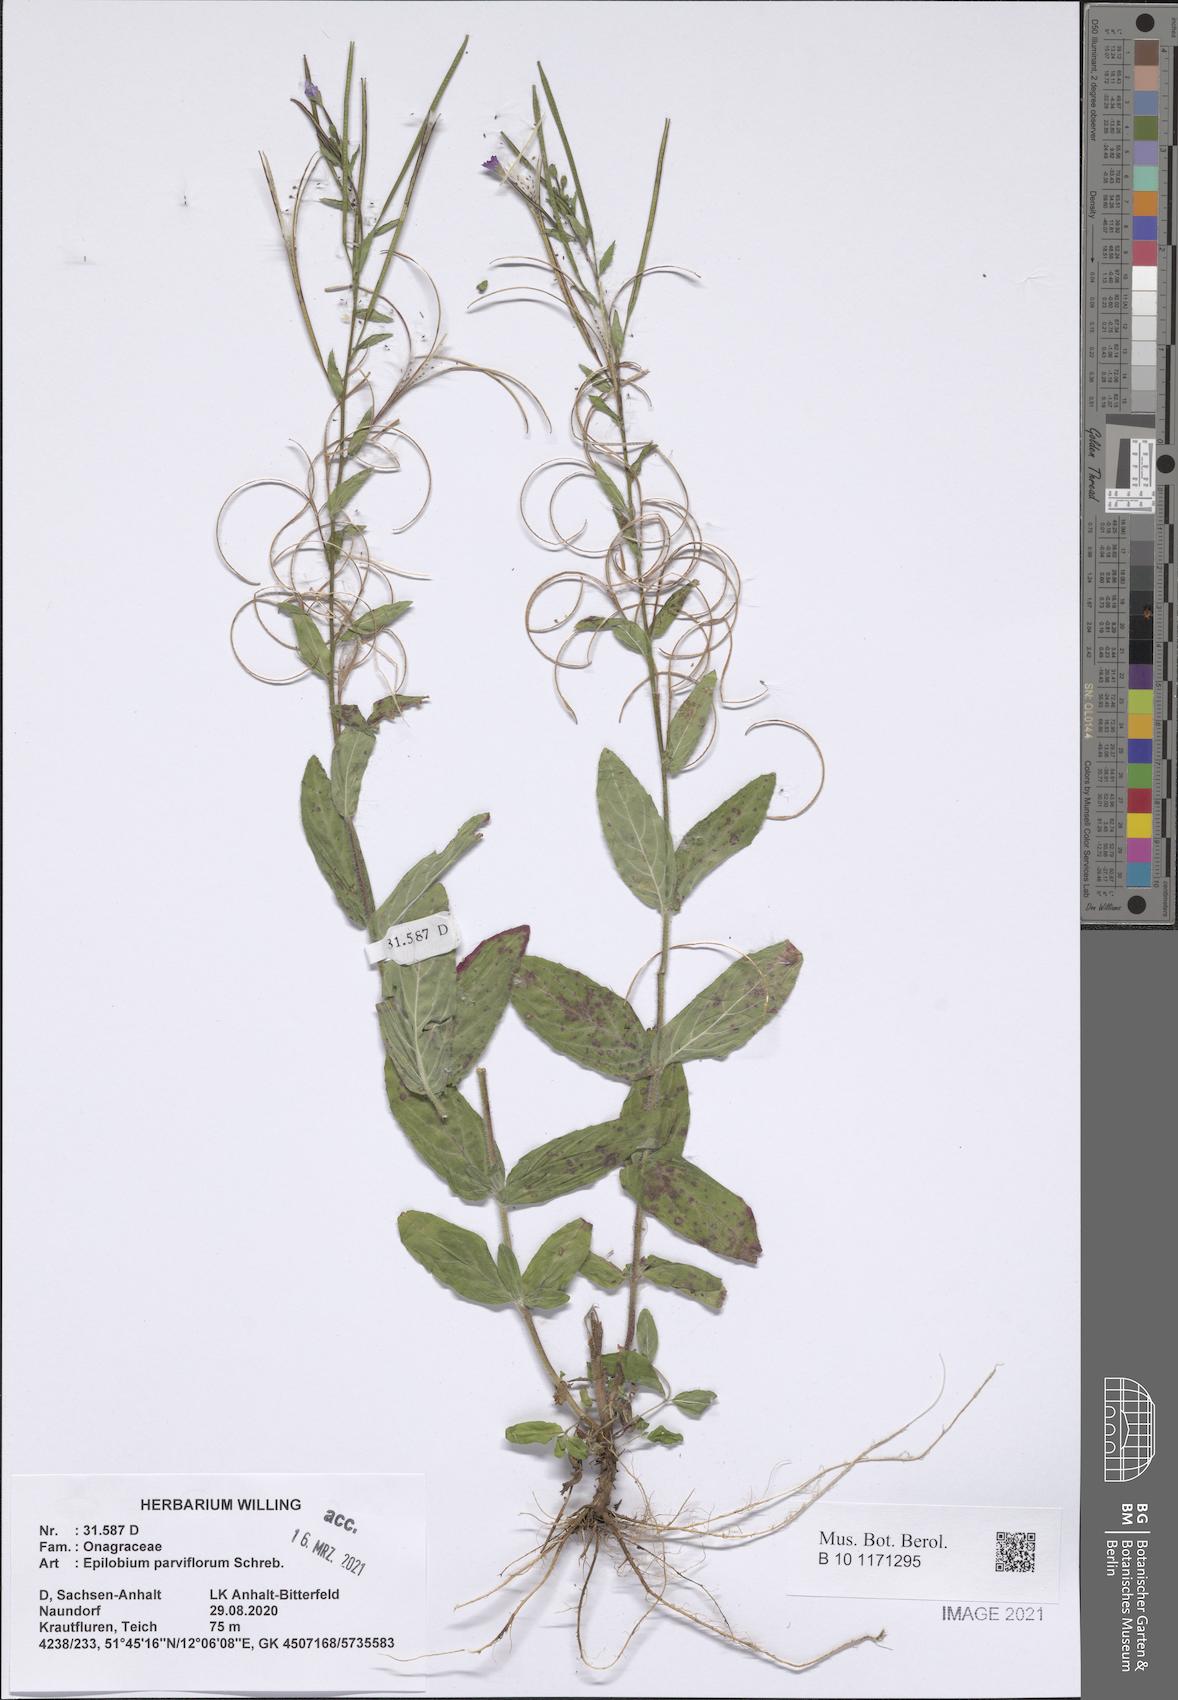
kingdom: Plantae
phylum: Tracheophyta
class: Magnoliopsida
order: Myrtales
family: Onagraceae
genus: Epilobium
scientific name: Epilobium parviflorum
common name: Hoary willowherb
